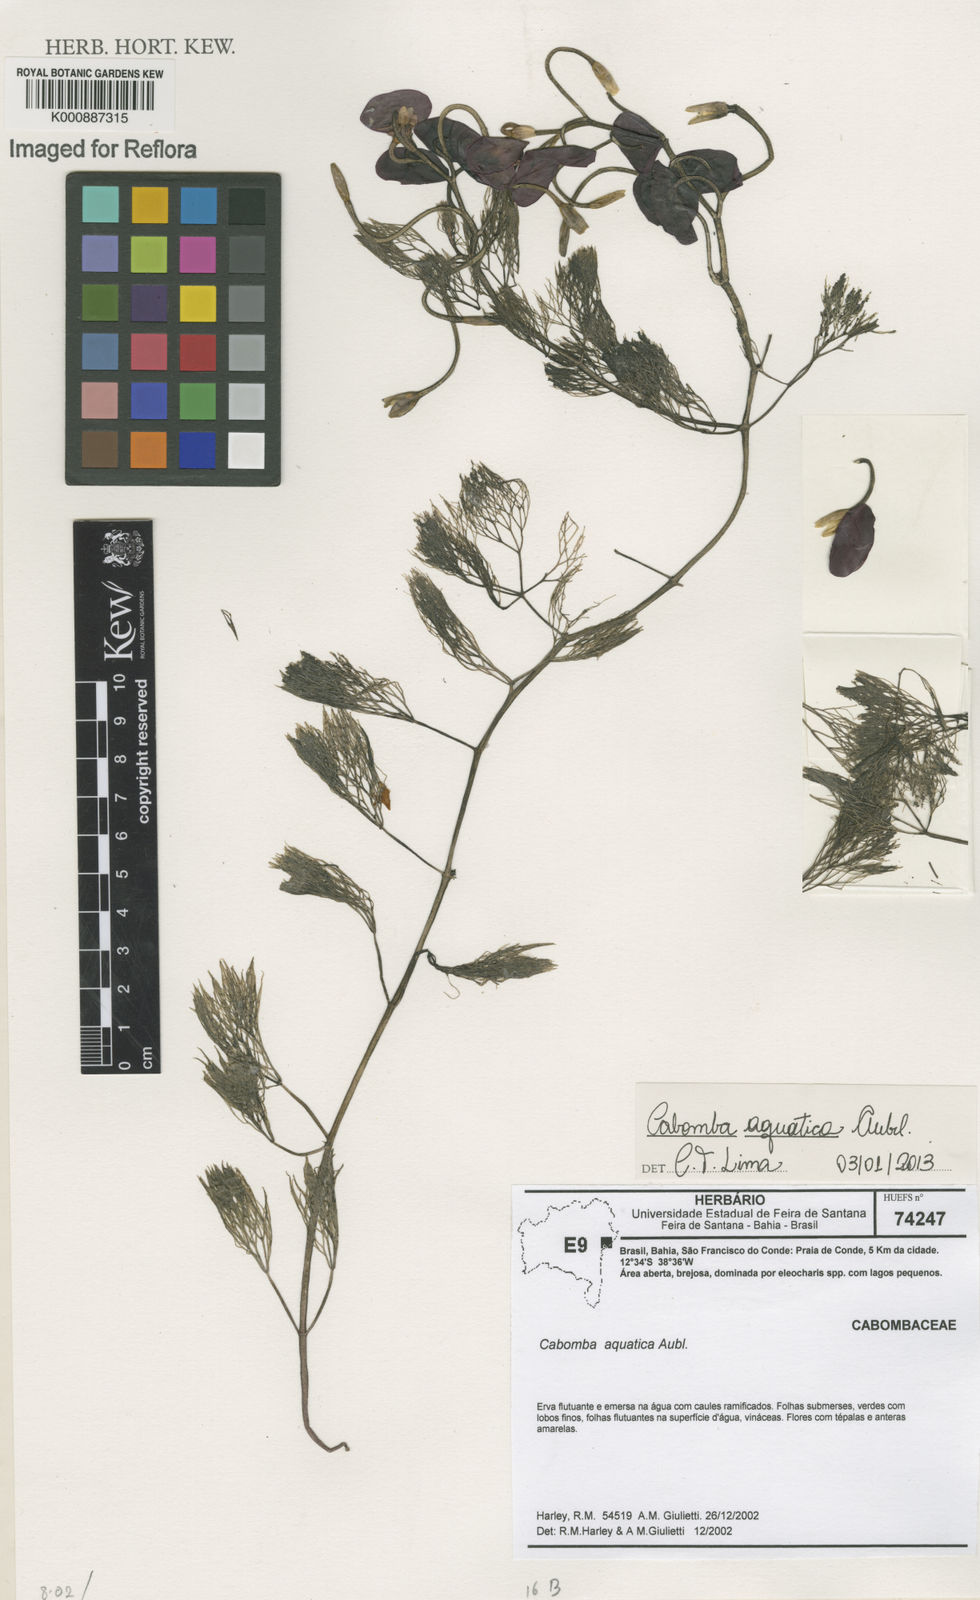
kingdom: Plantae
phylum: Tracheophyta
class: Magnoliopsida
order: Nymphaeales
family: Cabombaceae
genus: Cabomba
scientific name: Cabomba aquatica
